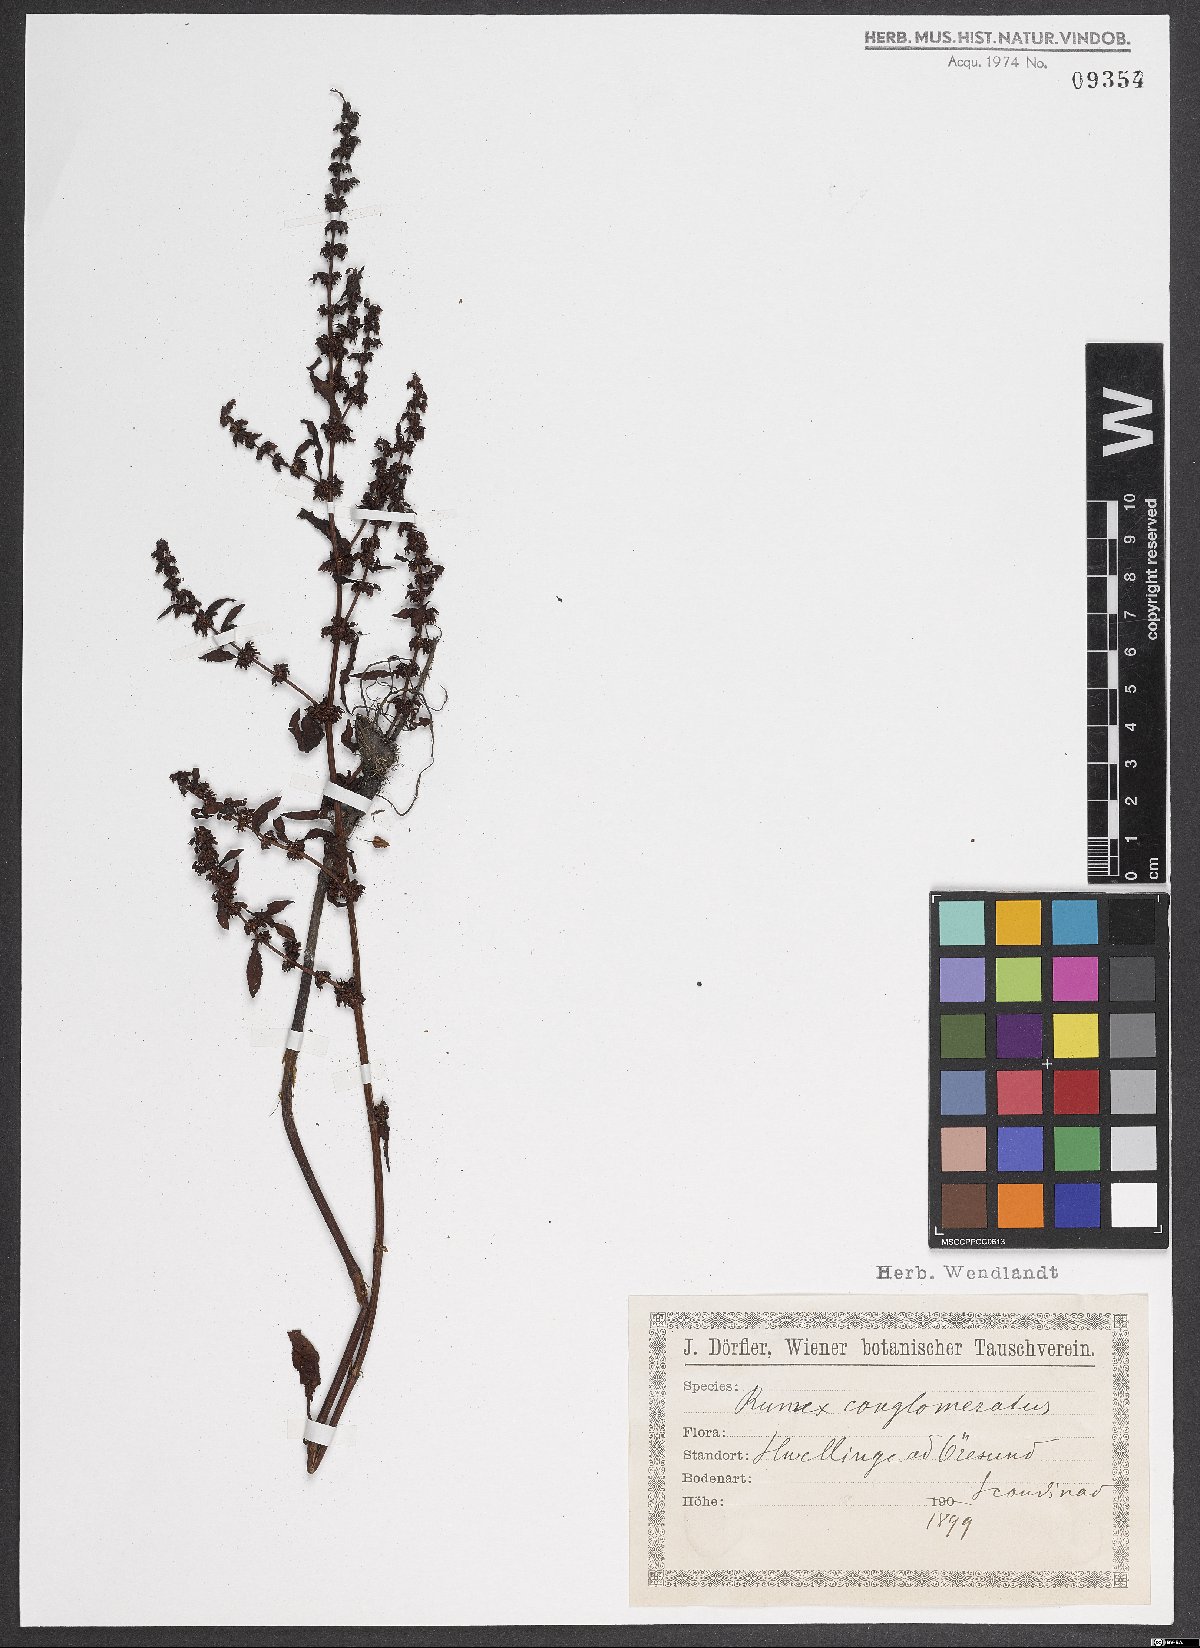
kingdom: Plantae
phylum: Tracheophyta
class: Magnoliopsida
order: Caryophyllales
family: Polygonaceae
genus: Rumex
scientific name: Rumex conglomeratus
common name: Clustered dock
